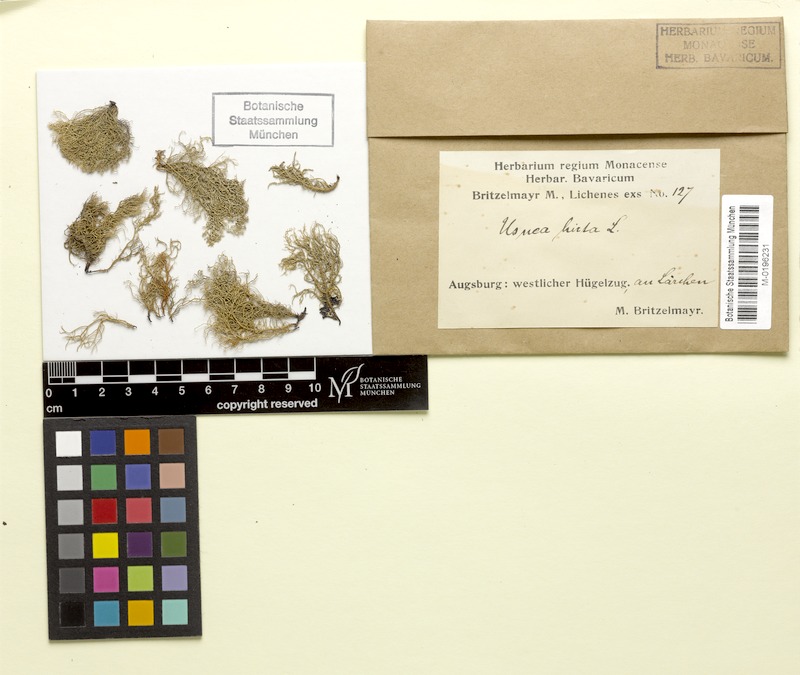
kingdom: Fungi
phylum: Ascomycota
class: Lecanoromycetes
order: Lecanorales
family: Parmeliaceae
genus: Usnea
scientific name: Usnea hirta
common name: Bristly beard lichen
